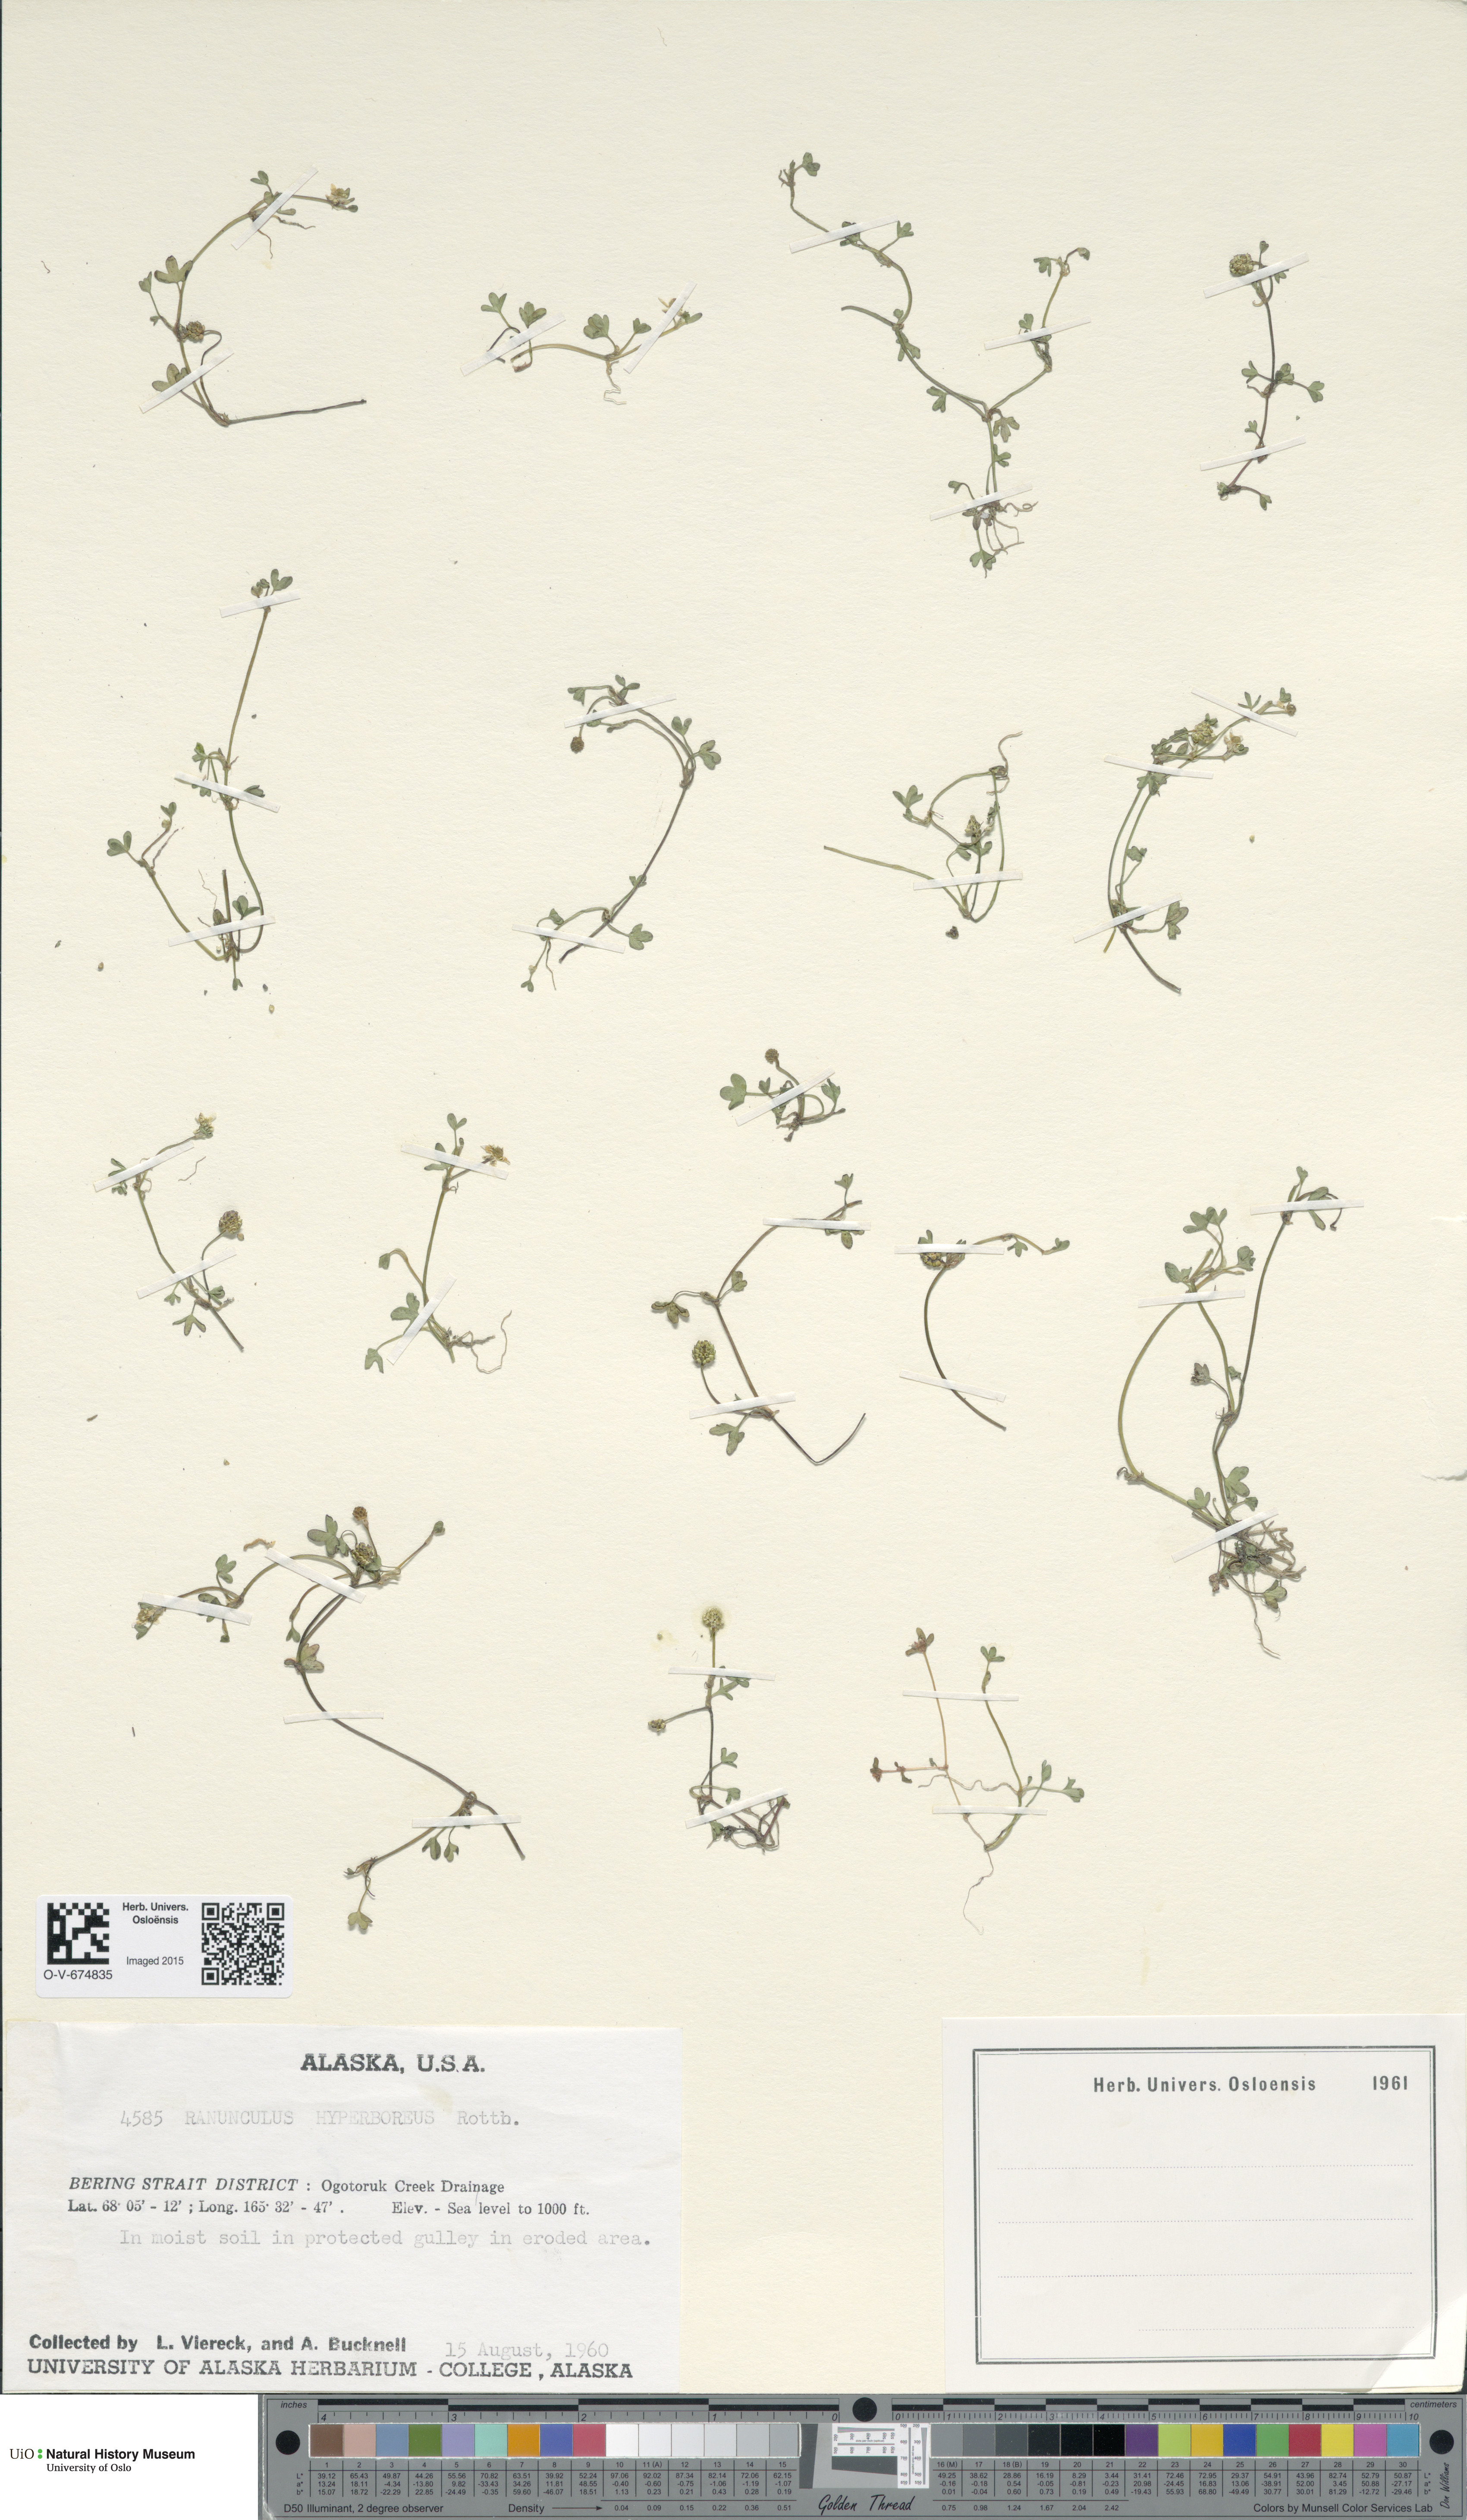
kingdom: Plantae
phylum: Tracheophyta
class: Magnoliopsida
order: Ranunculales
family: Ranunculaceae
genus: Ranunculus
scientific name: Ranunculus hyperboreus
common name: Arctic buttercup
